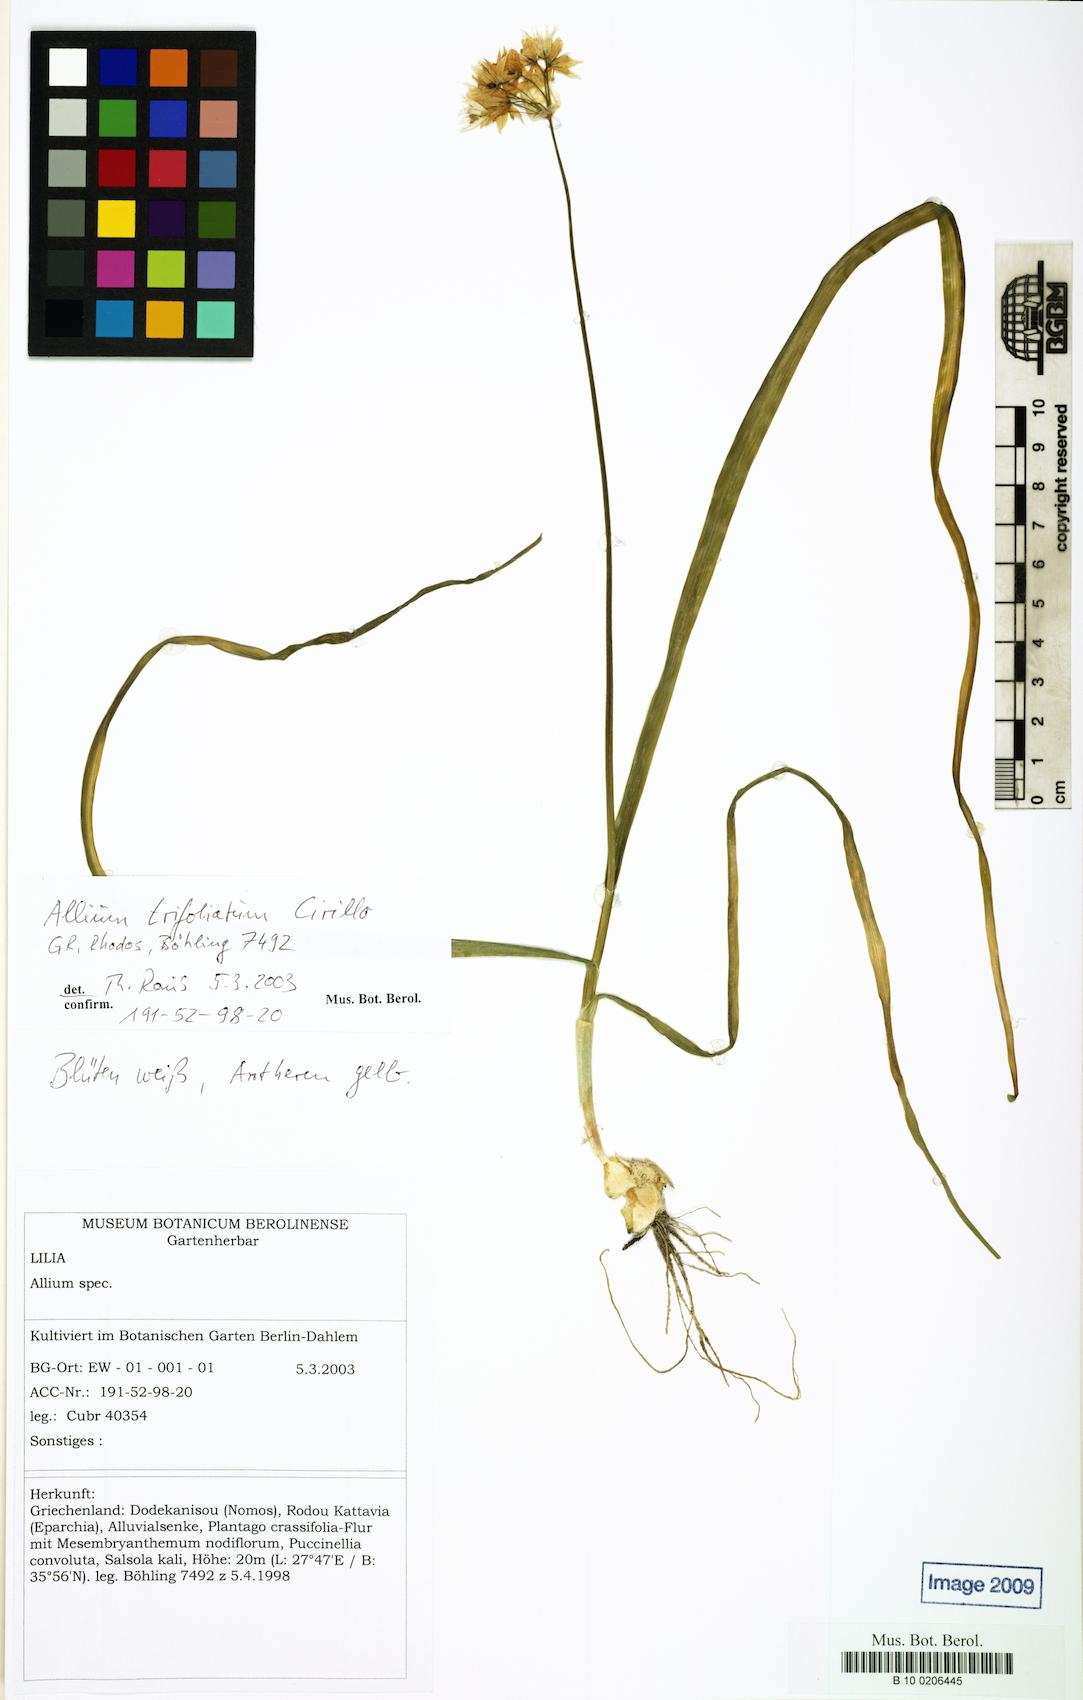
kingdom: Plantae
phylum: Tracheophyta
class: Liliopsida
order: Asparagales
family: Amaryllidaceae
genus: Allium
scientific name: Allium trifoliatum
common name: Pink garlic
